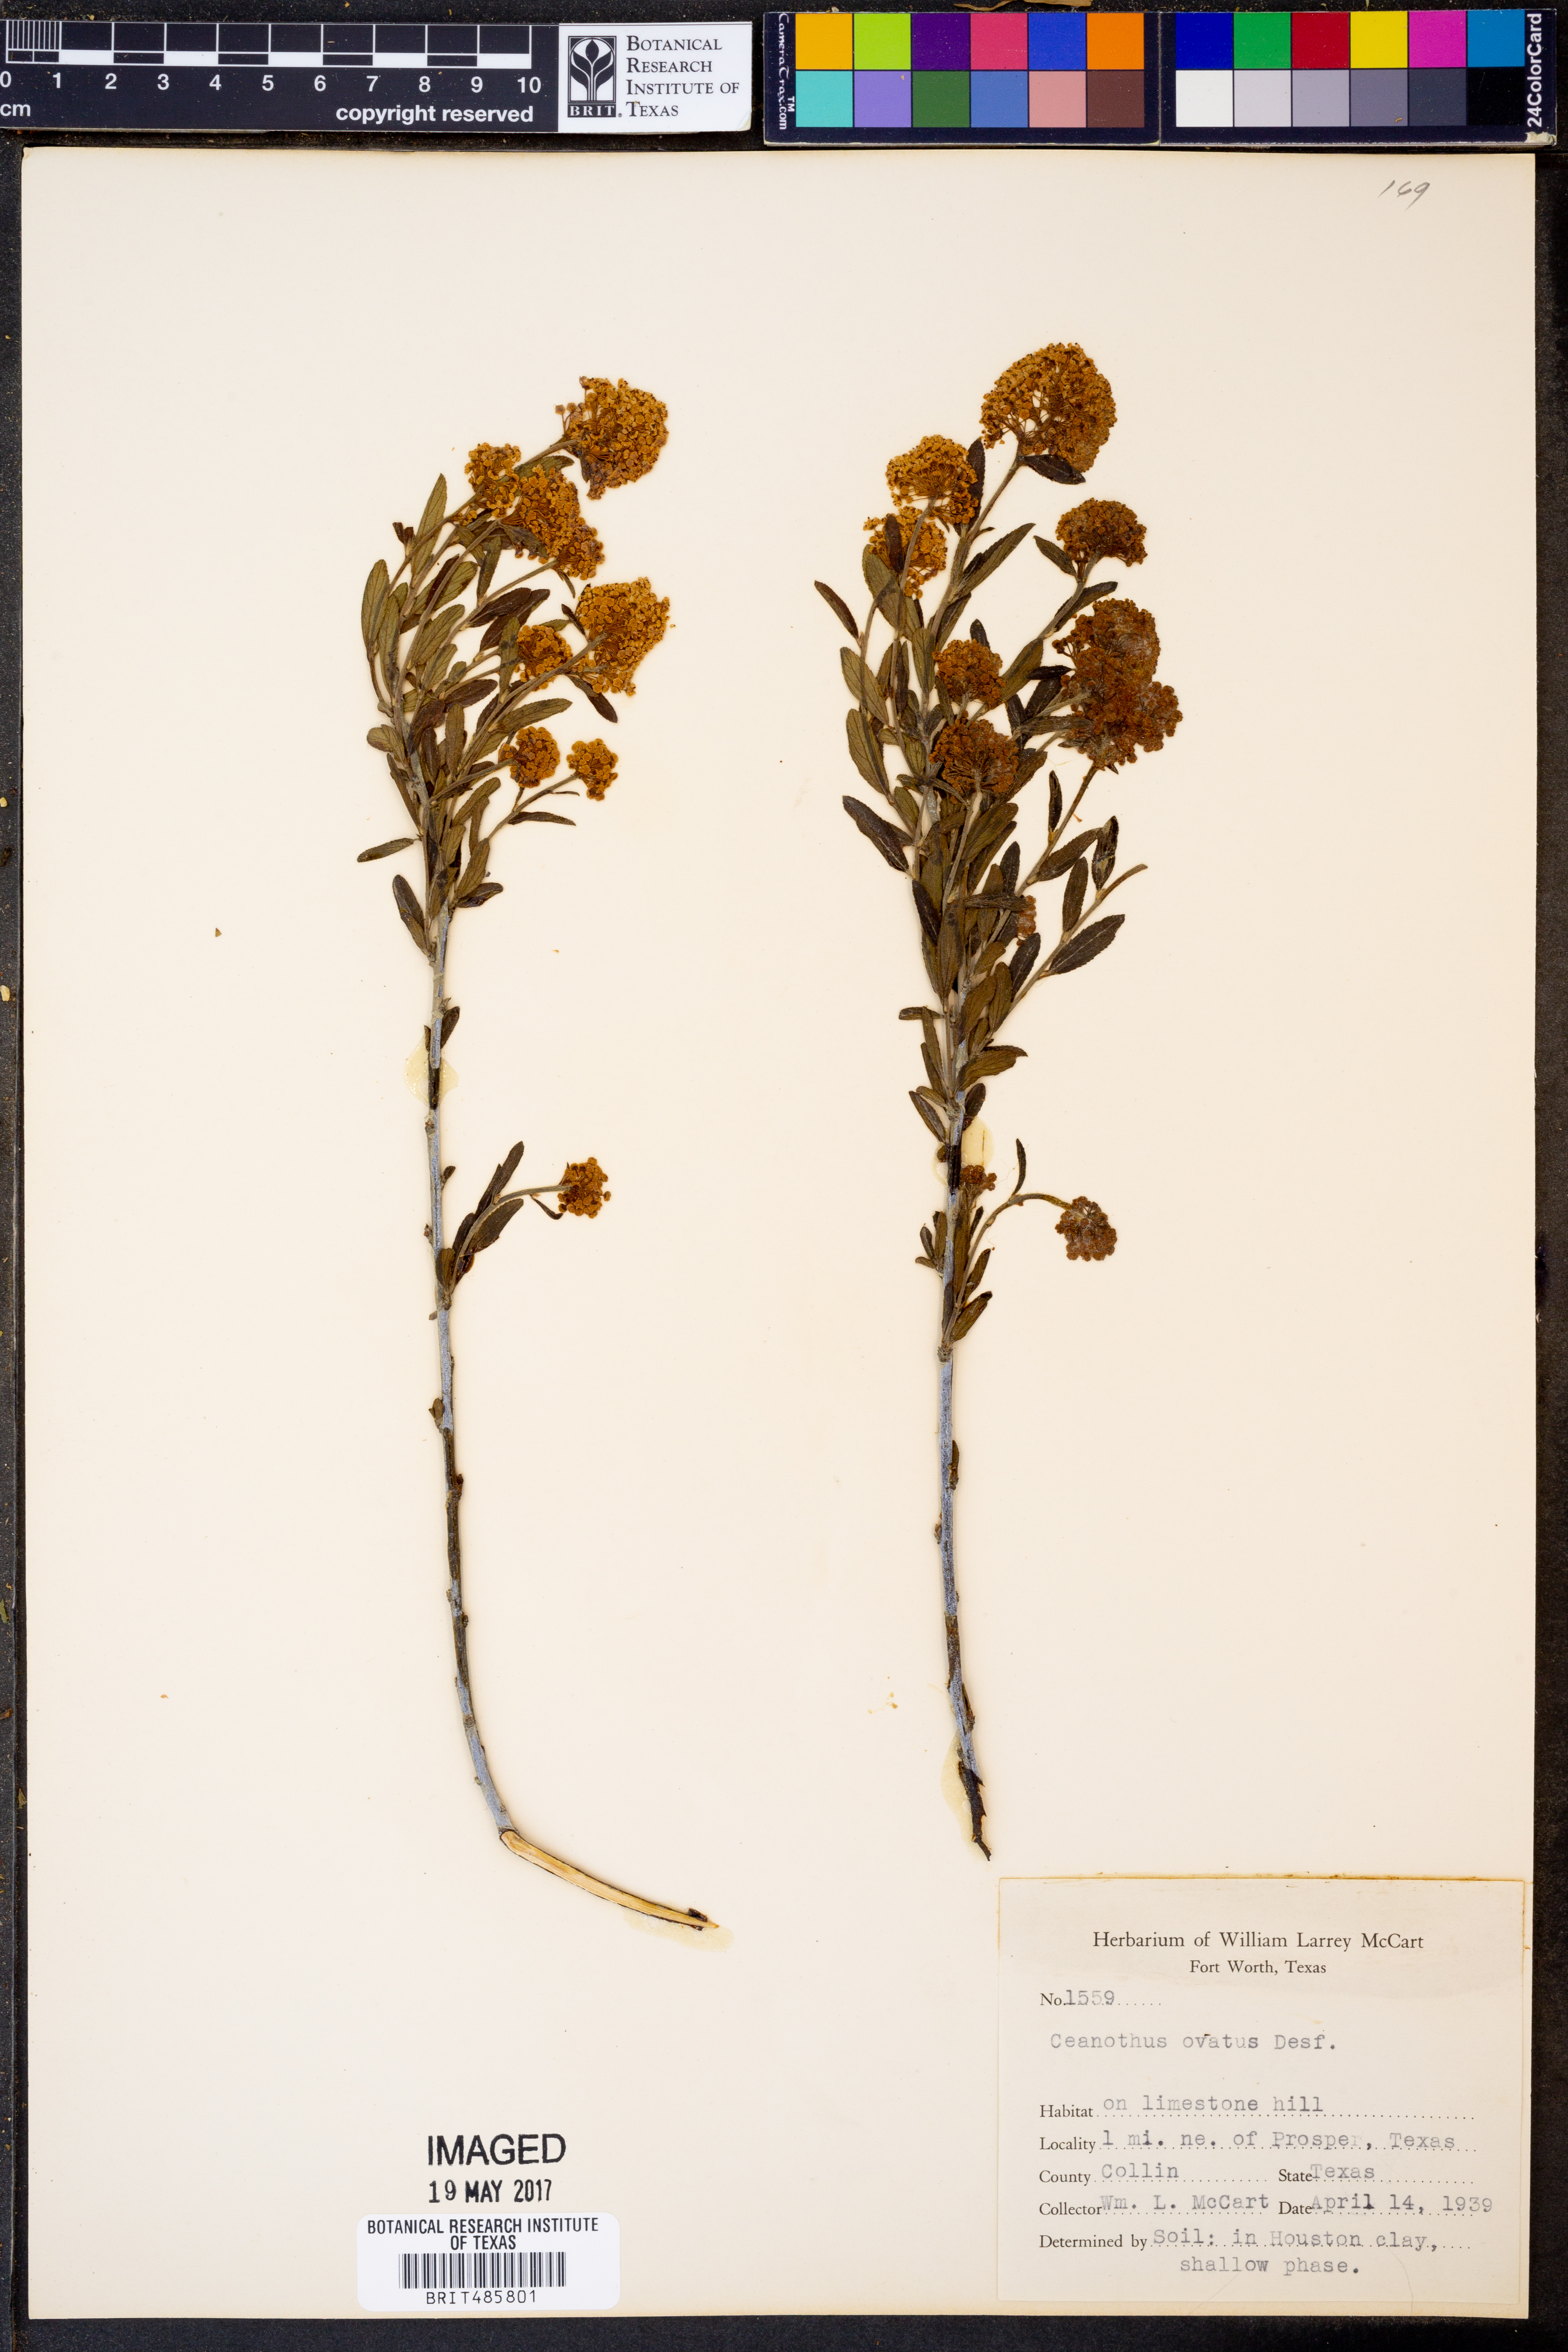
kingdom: Plantae
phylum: Tracheophyta
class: Magnoliopsida
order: Rosales
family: Rhamnaceae
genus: Ceanothus
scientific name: Ceanothus herbaceus
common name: Inland ceanothus
